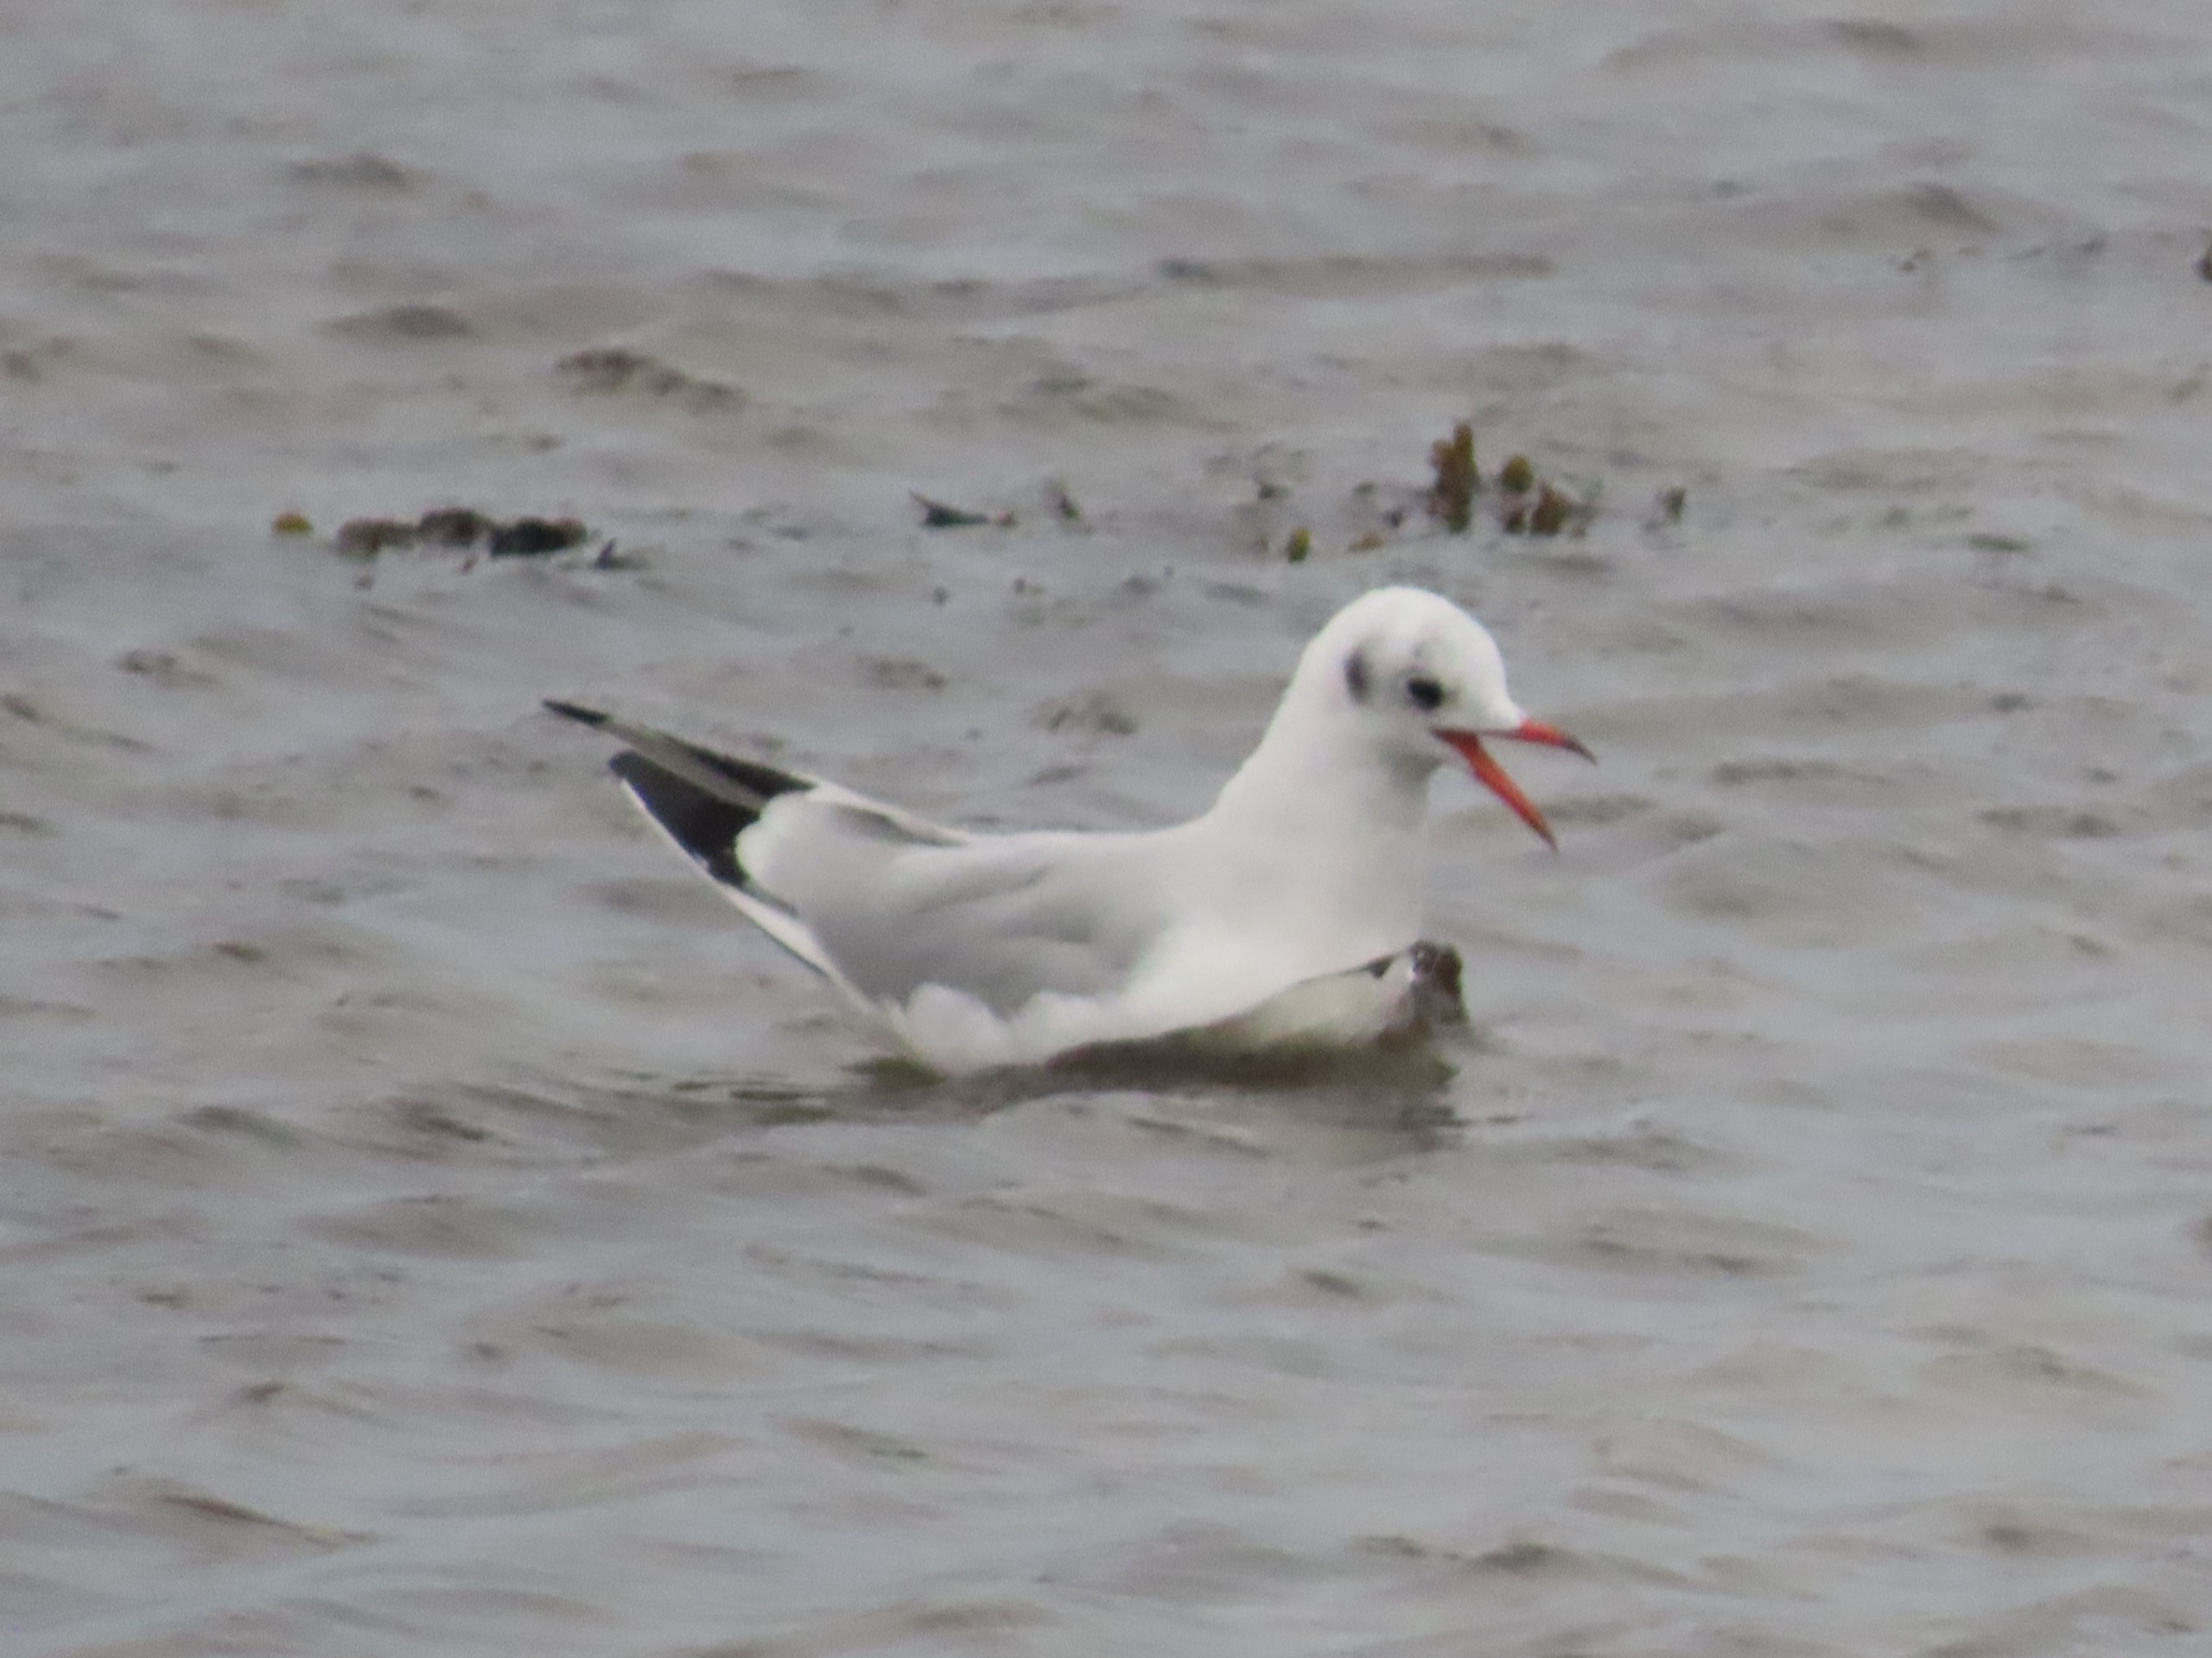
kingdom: Animalia
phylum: Chordata
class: Aves
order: Charadriiformes
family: Laridae
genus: Chroicocephalus
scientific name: Chroicocephalus ridibundus
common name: Hættemåge
